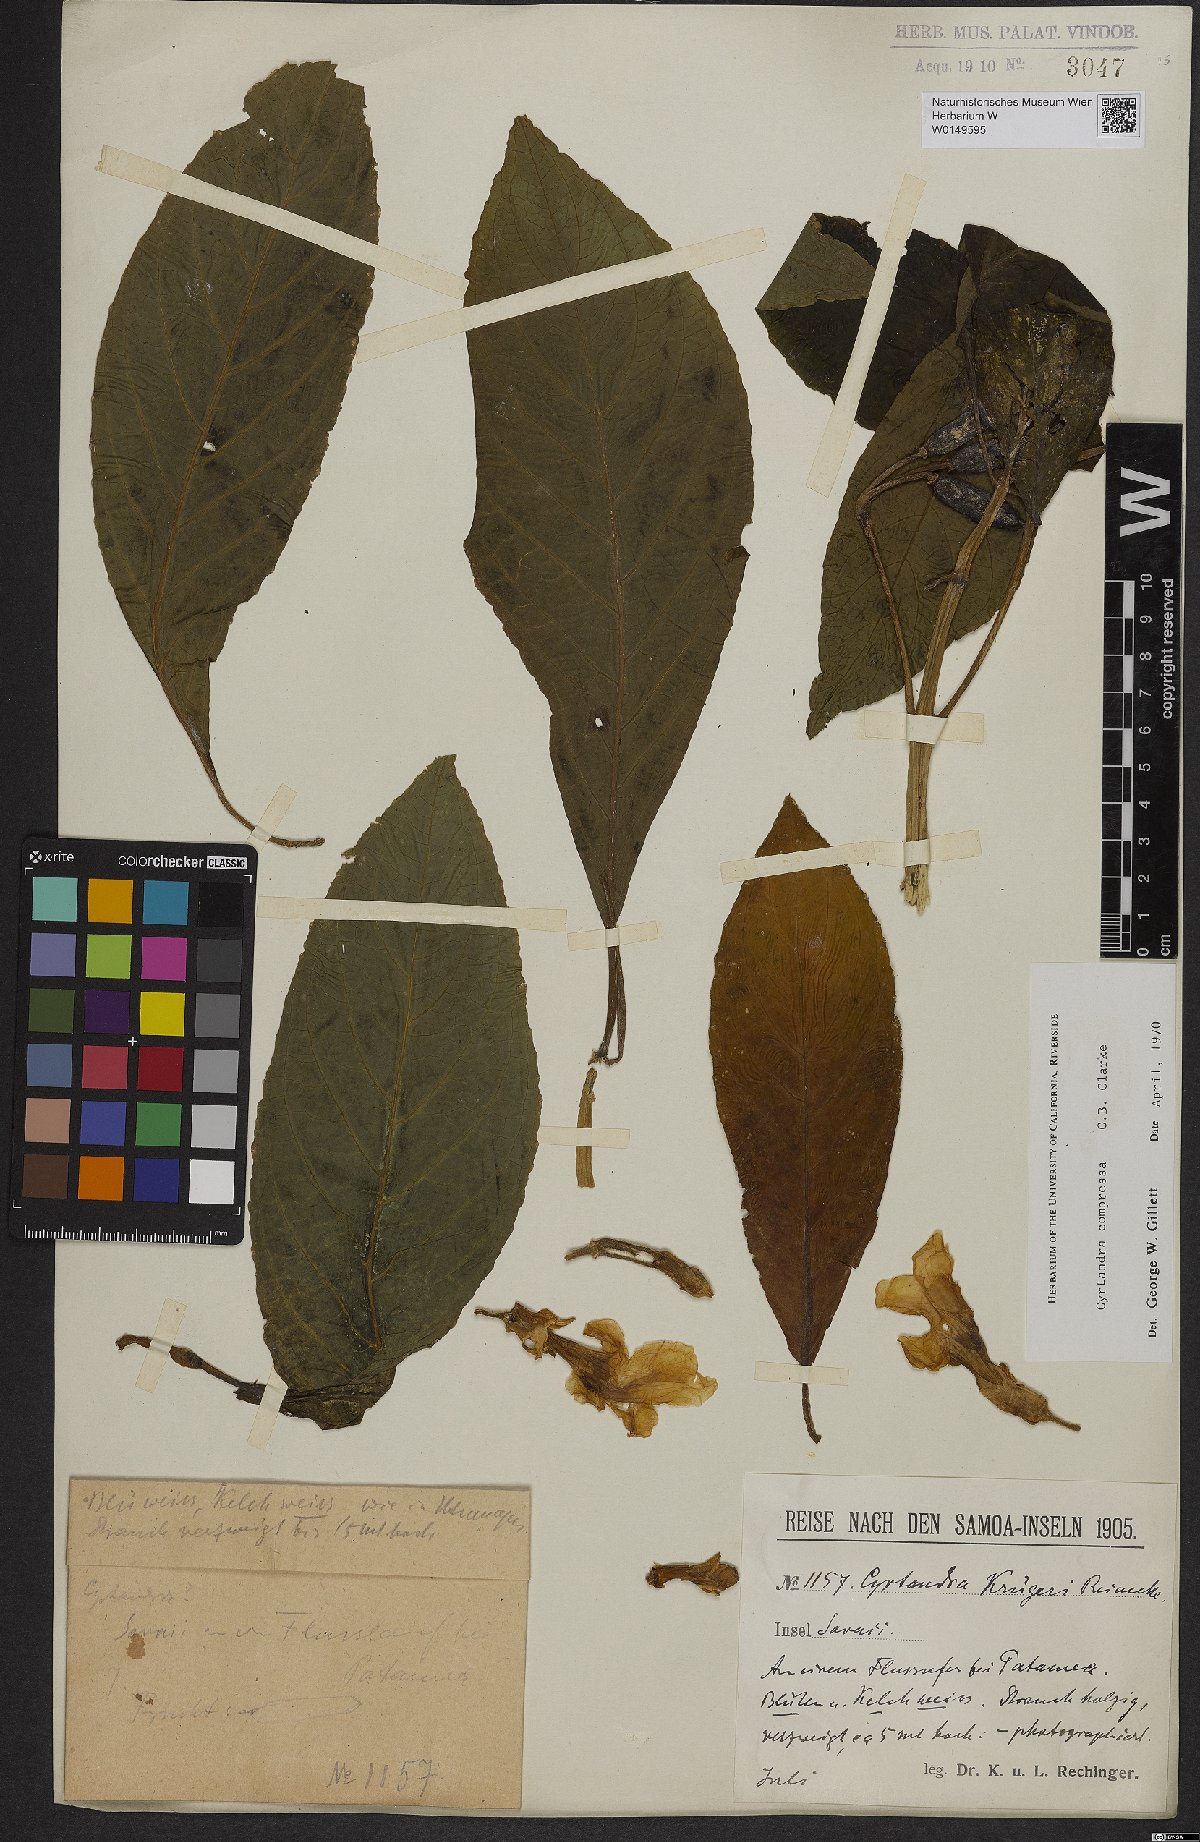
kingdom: Plantae
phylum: Tracheophyta
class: Magnoliopsida
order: Lamiales
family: Gesneriaceae
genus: Cyrtandra
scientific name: Cyrtandra compressa
